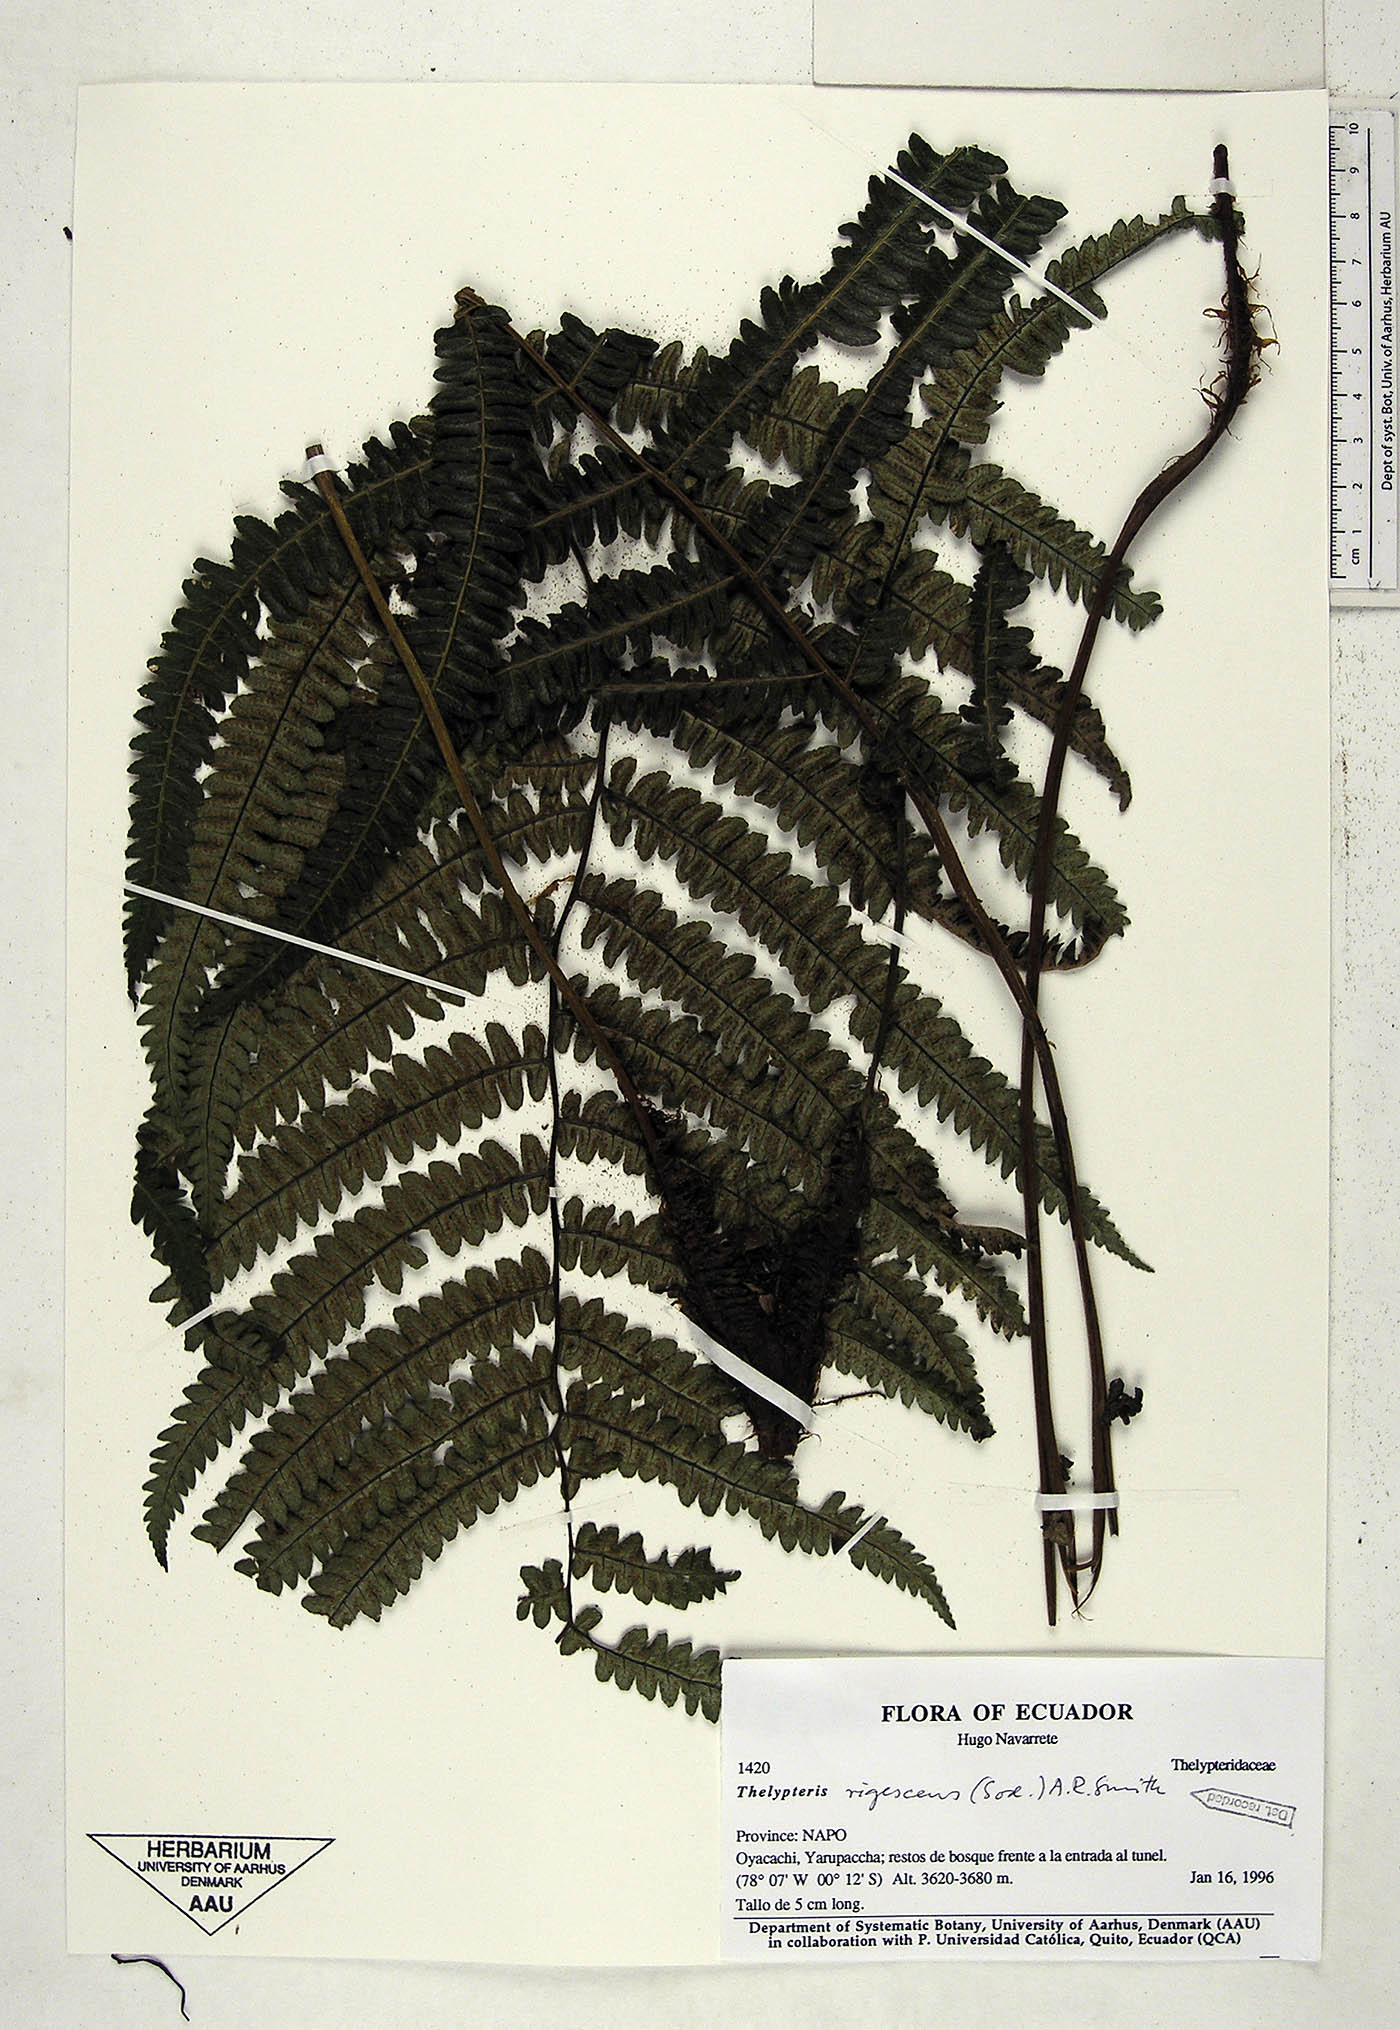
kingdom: Plantae
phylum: Tracheophyta
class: Polypodiopsida
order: Polypodiales
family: Thelypteridaceae
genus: Amauropelta
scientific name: Amauropelta rigescens
